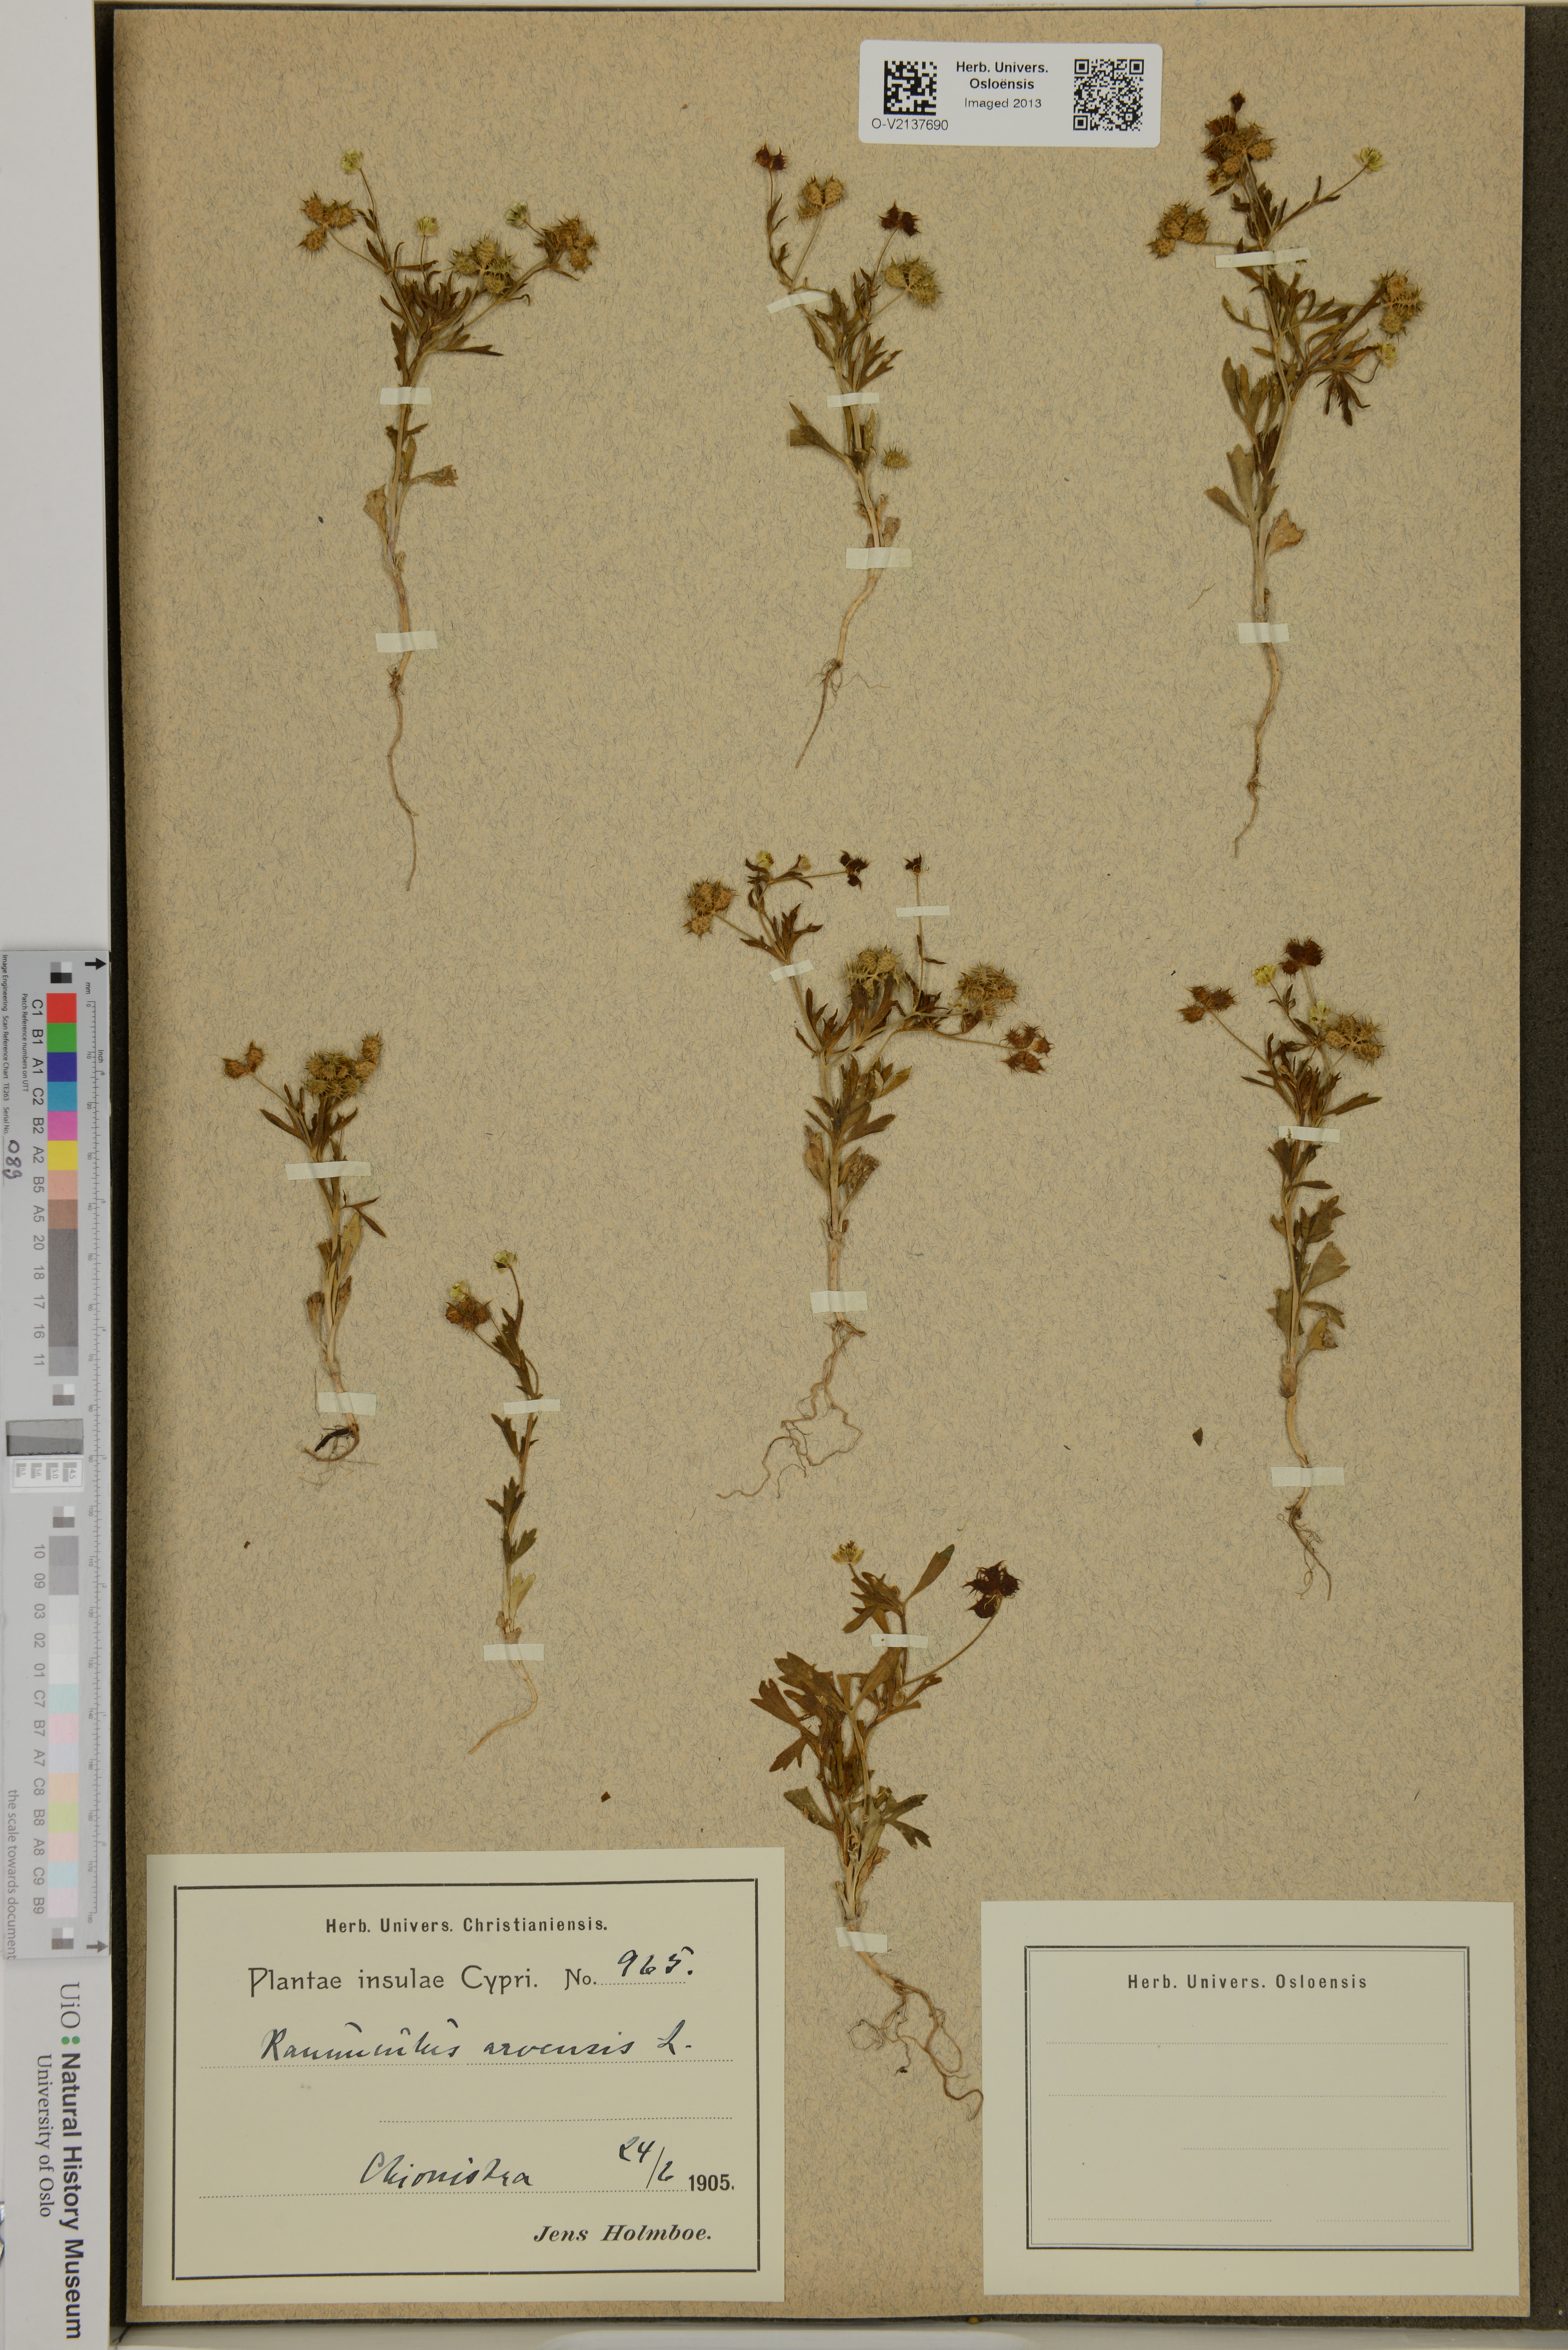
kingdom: Plantae
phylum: Tracheophyta
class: Magnoliopsida
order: Ranunculales
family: Ranunculaceae
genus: Ranunculus
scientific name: Ranunculus arvensis
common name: Corn buttercup
